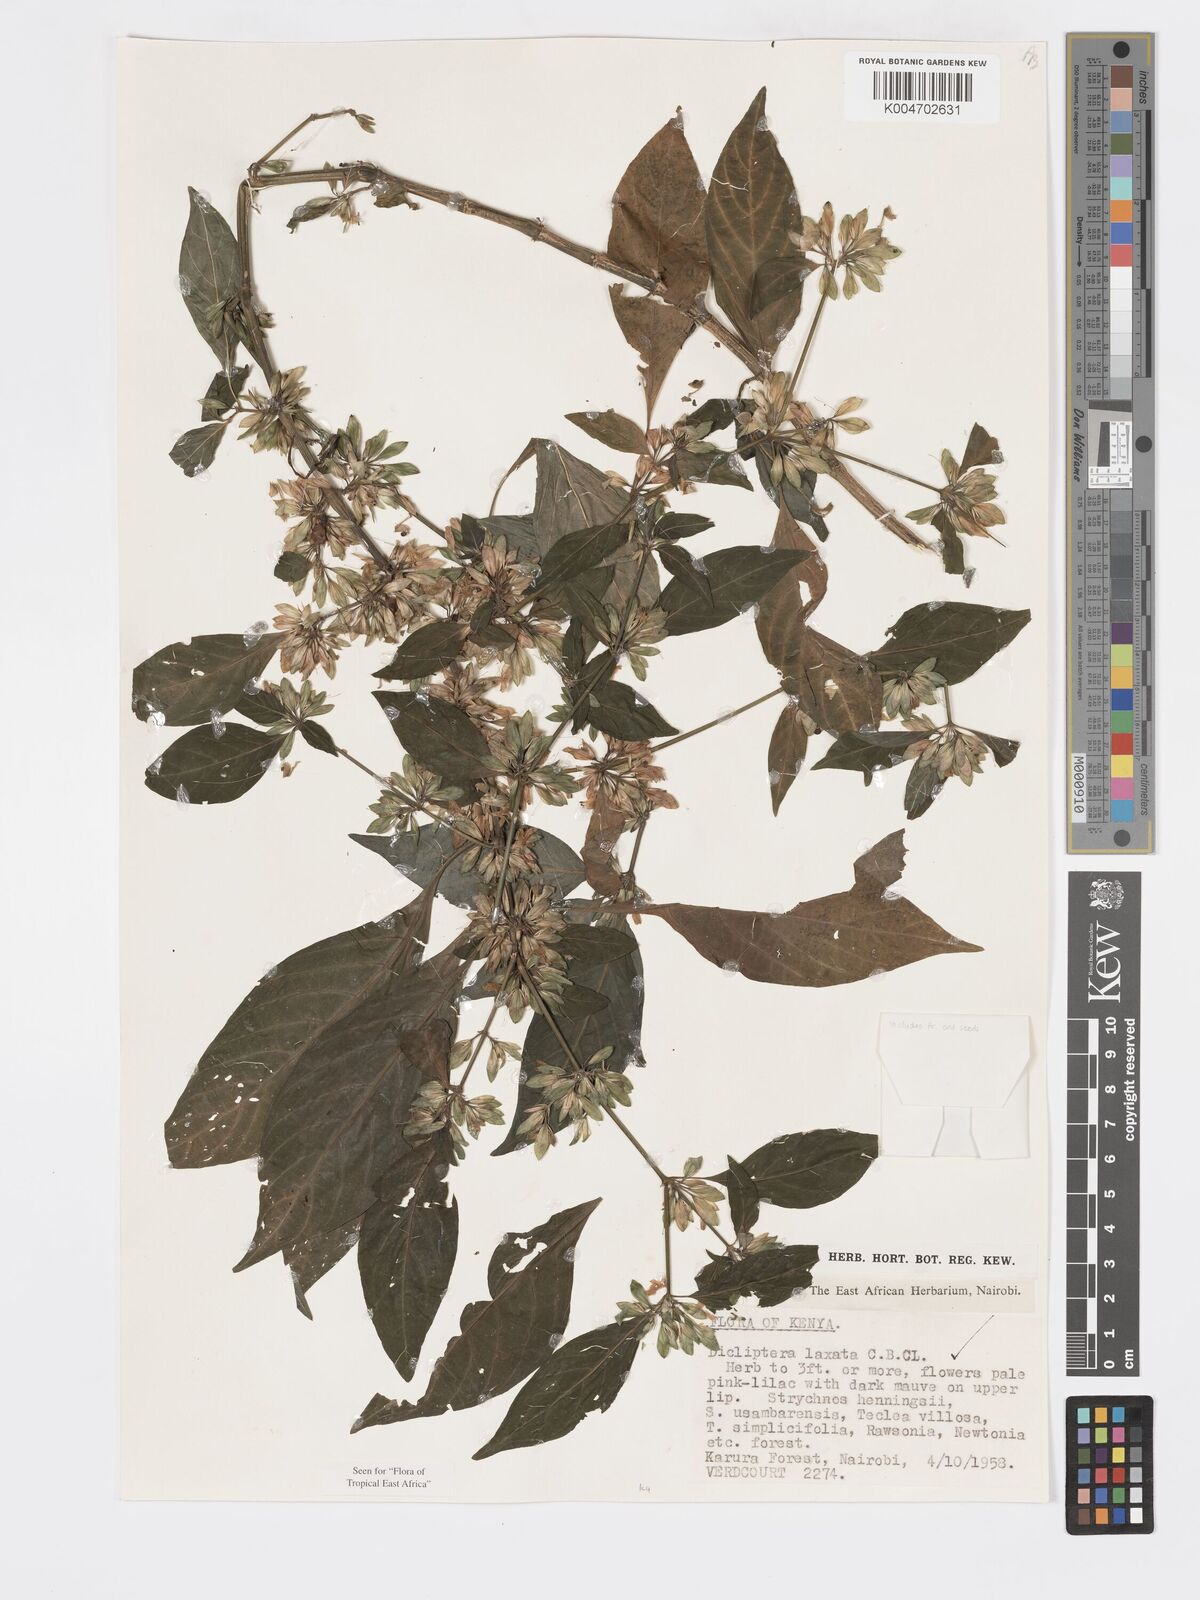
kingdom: Plantae
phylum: Tracheophyta
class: Magnoliopsida
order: Lamiales
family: Acanthaceae
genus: Dicliptera
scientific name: Dicliptera laxata
